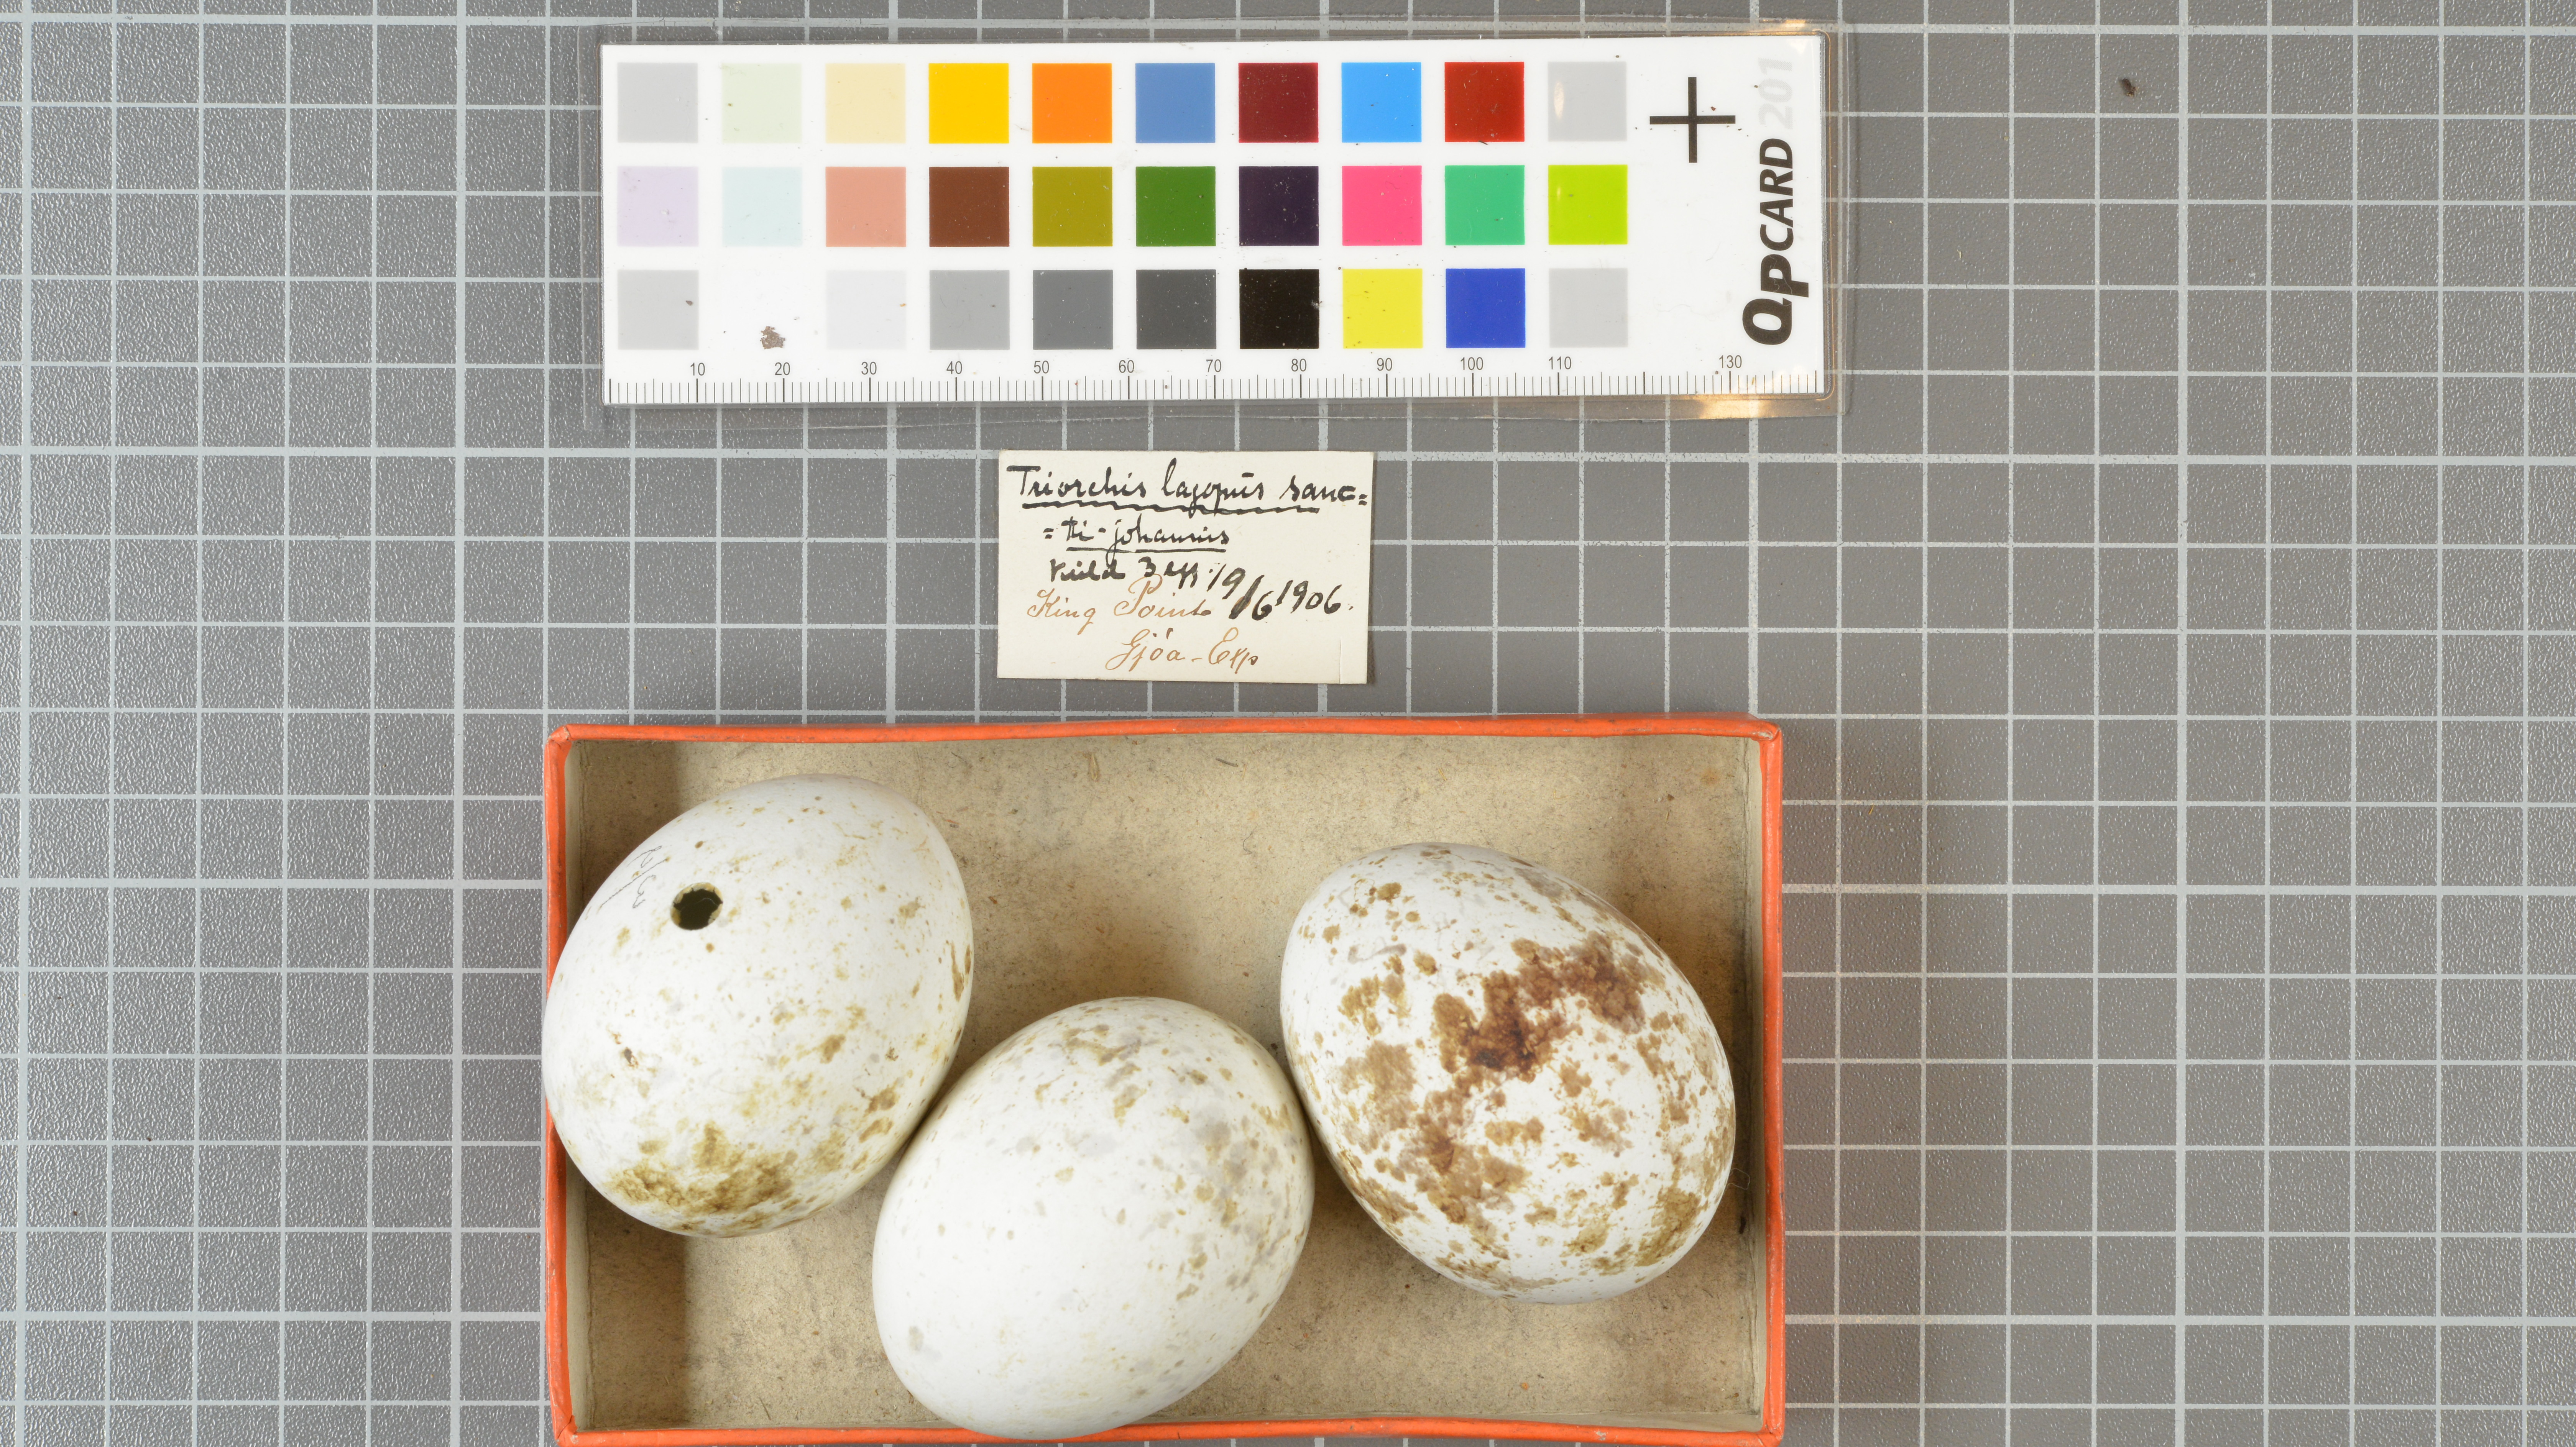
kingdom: Animalia
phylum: Chordata
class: Aves
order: Accipitriformes
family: Accipitridae
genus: Buteo
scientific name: Buteo lagopus
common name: Rough-legged buzzard
